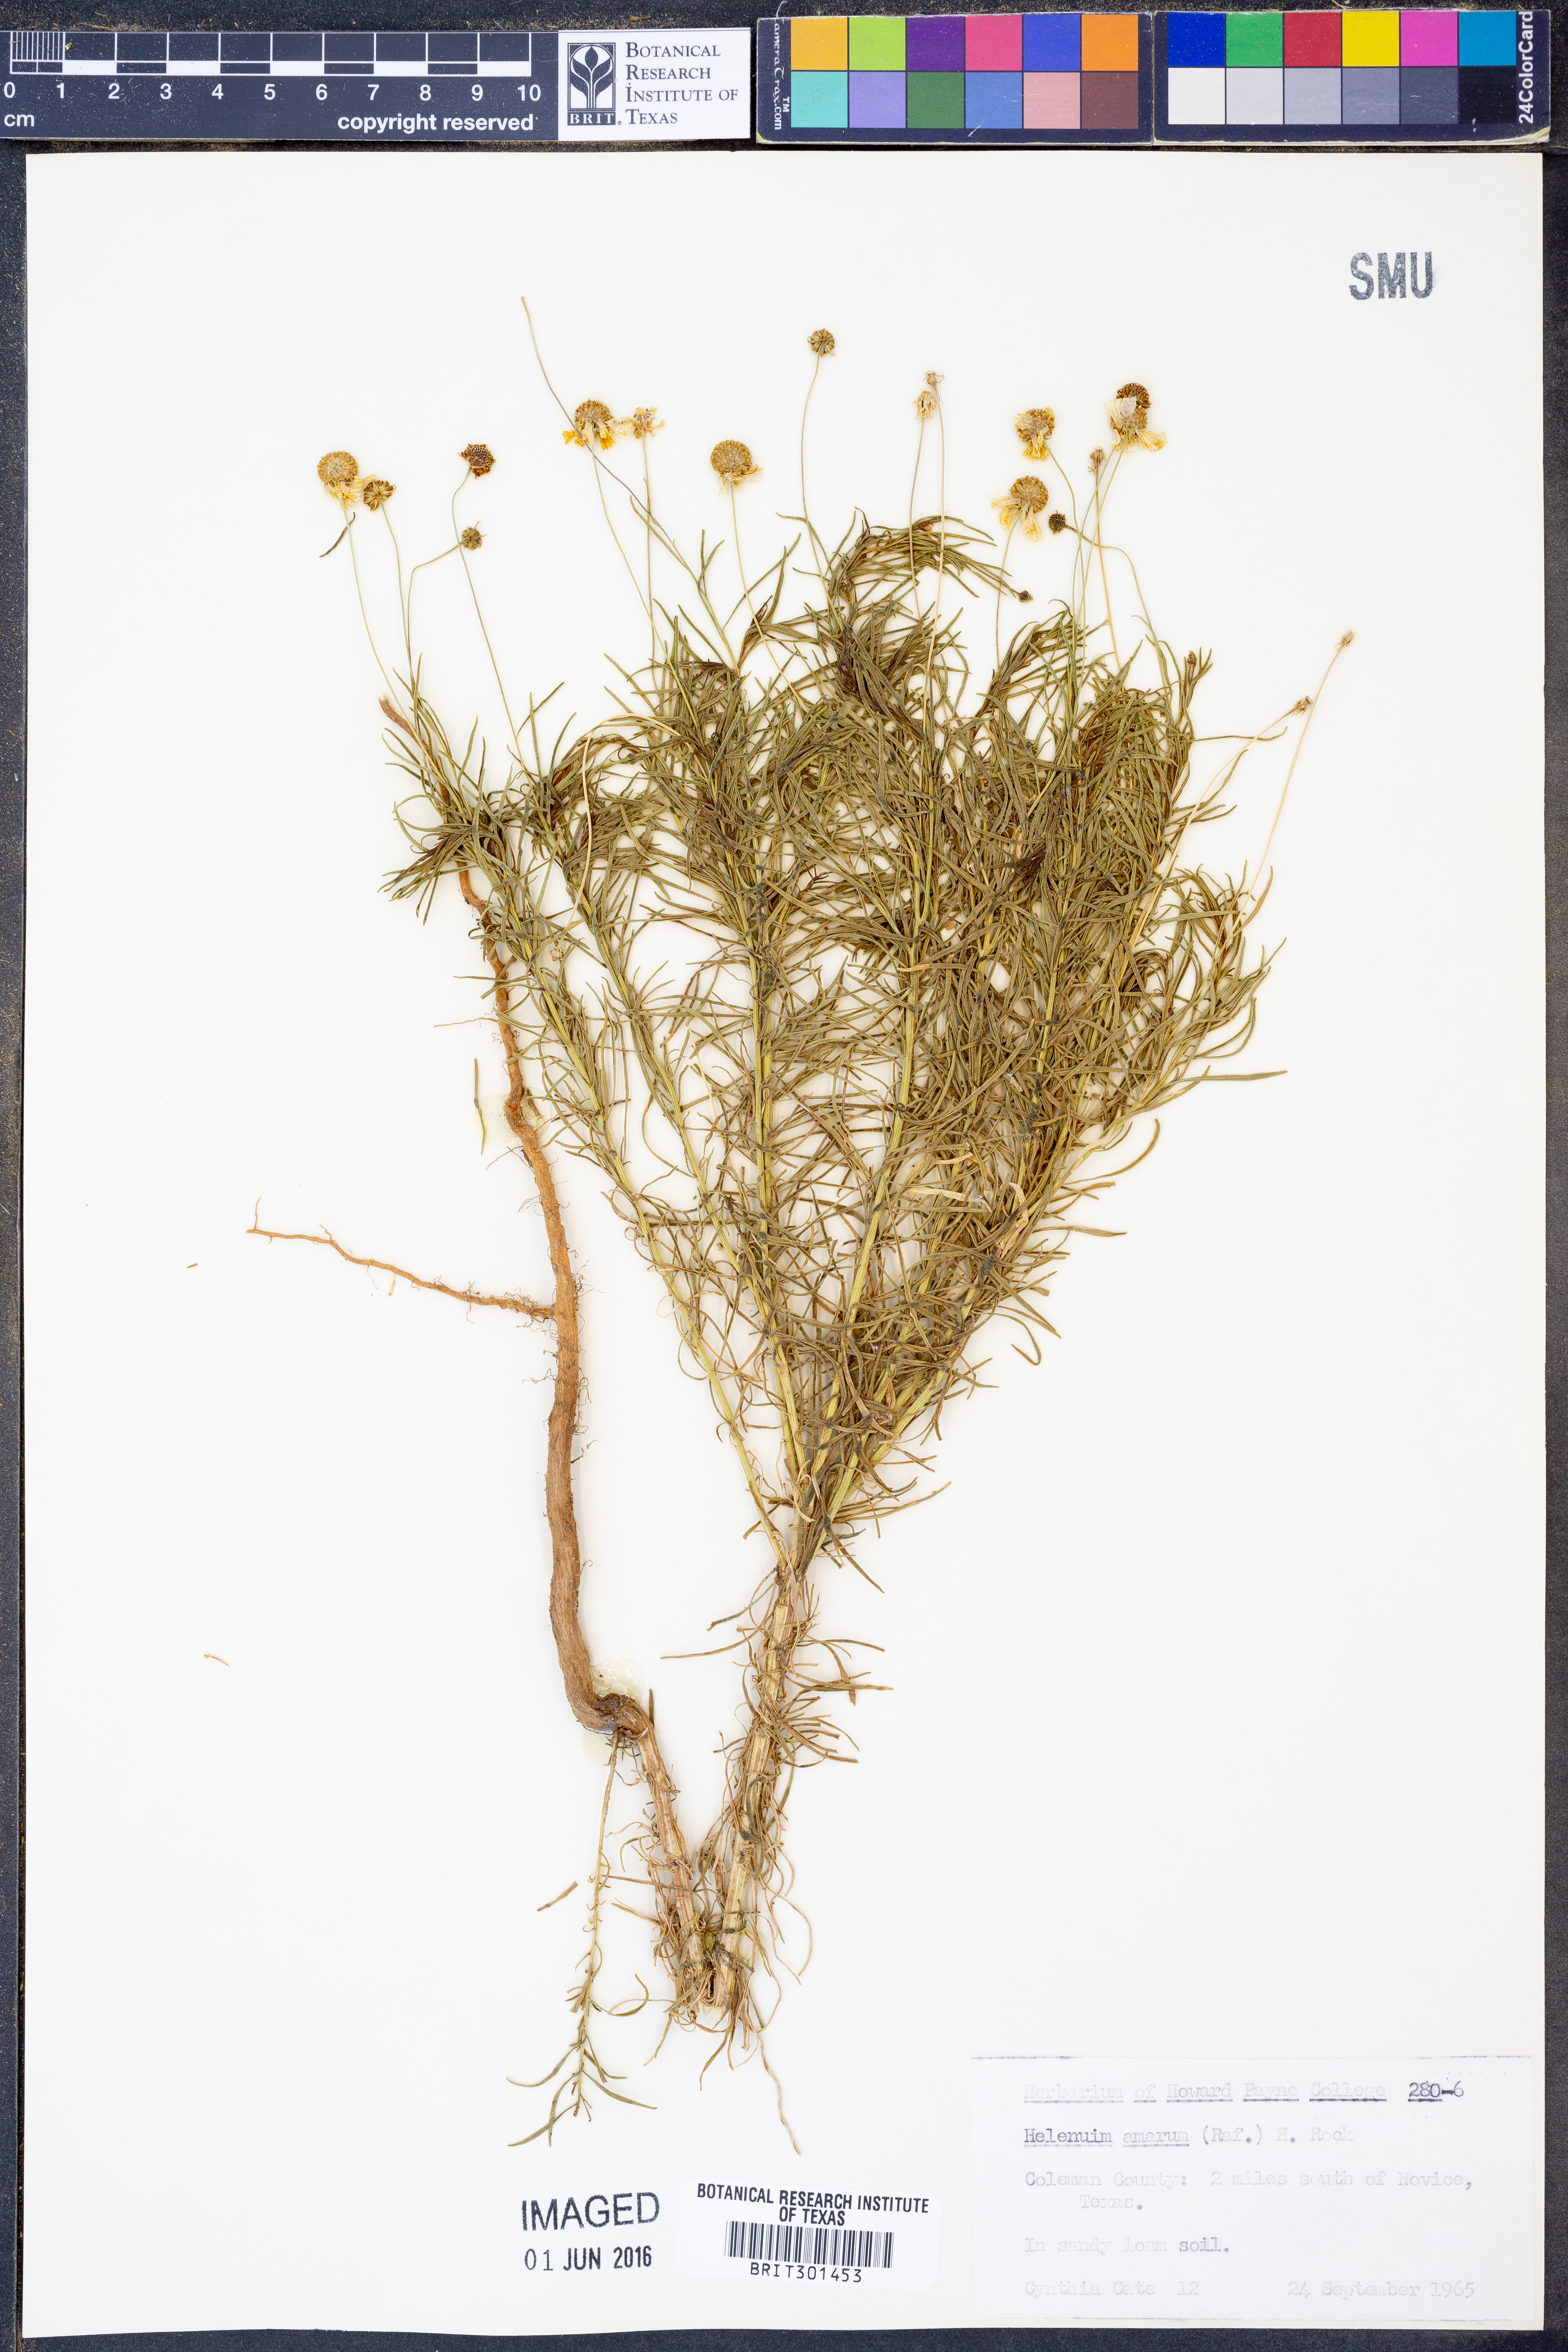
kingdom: Plantae
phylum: Tracheophyta
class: Magnoliopsida
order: Asterales
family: Asteraceae
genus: Helenium
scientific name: Helenium amarum
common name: Bitter sneezeweed
